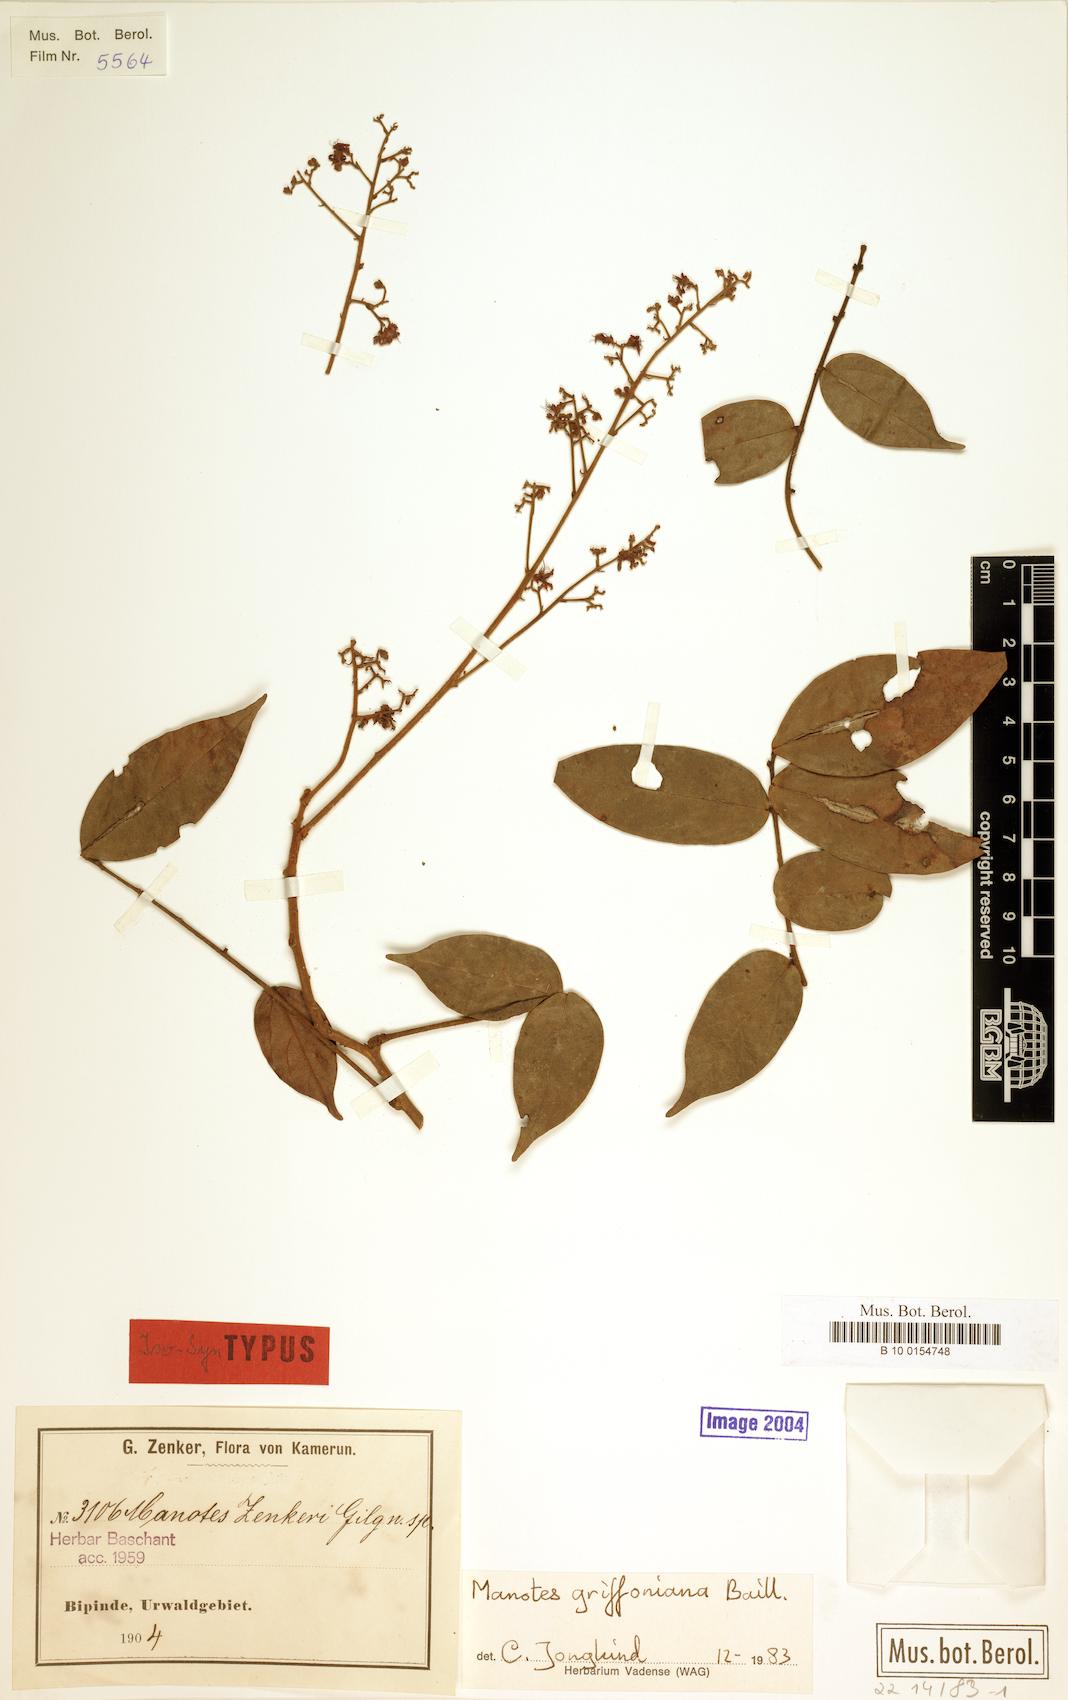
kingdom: Plantae
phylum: Tracheophyta
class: Magnoliopsida
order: Oxalidales
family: Connaraceae
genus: Manotes
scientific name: Manotes griffoniana
